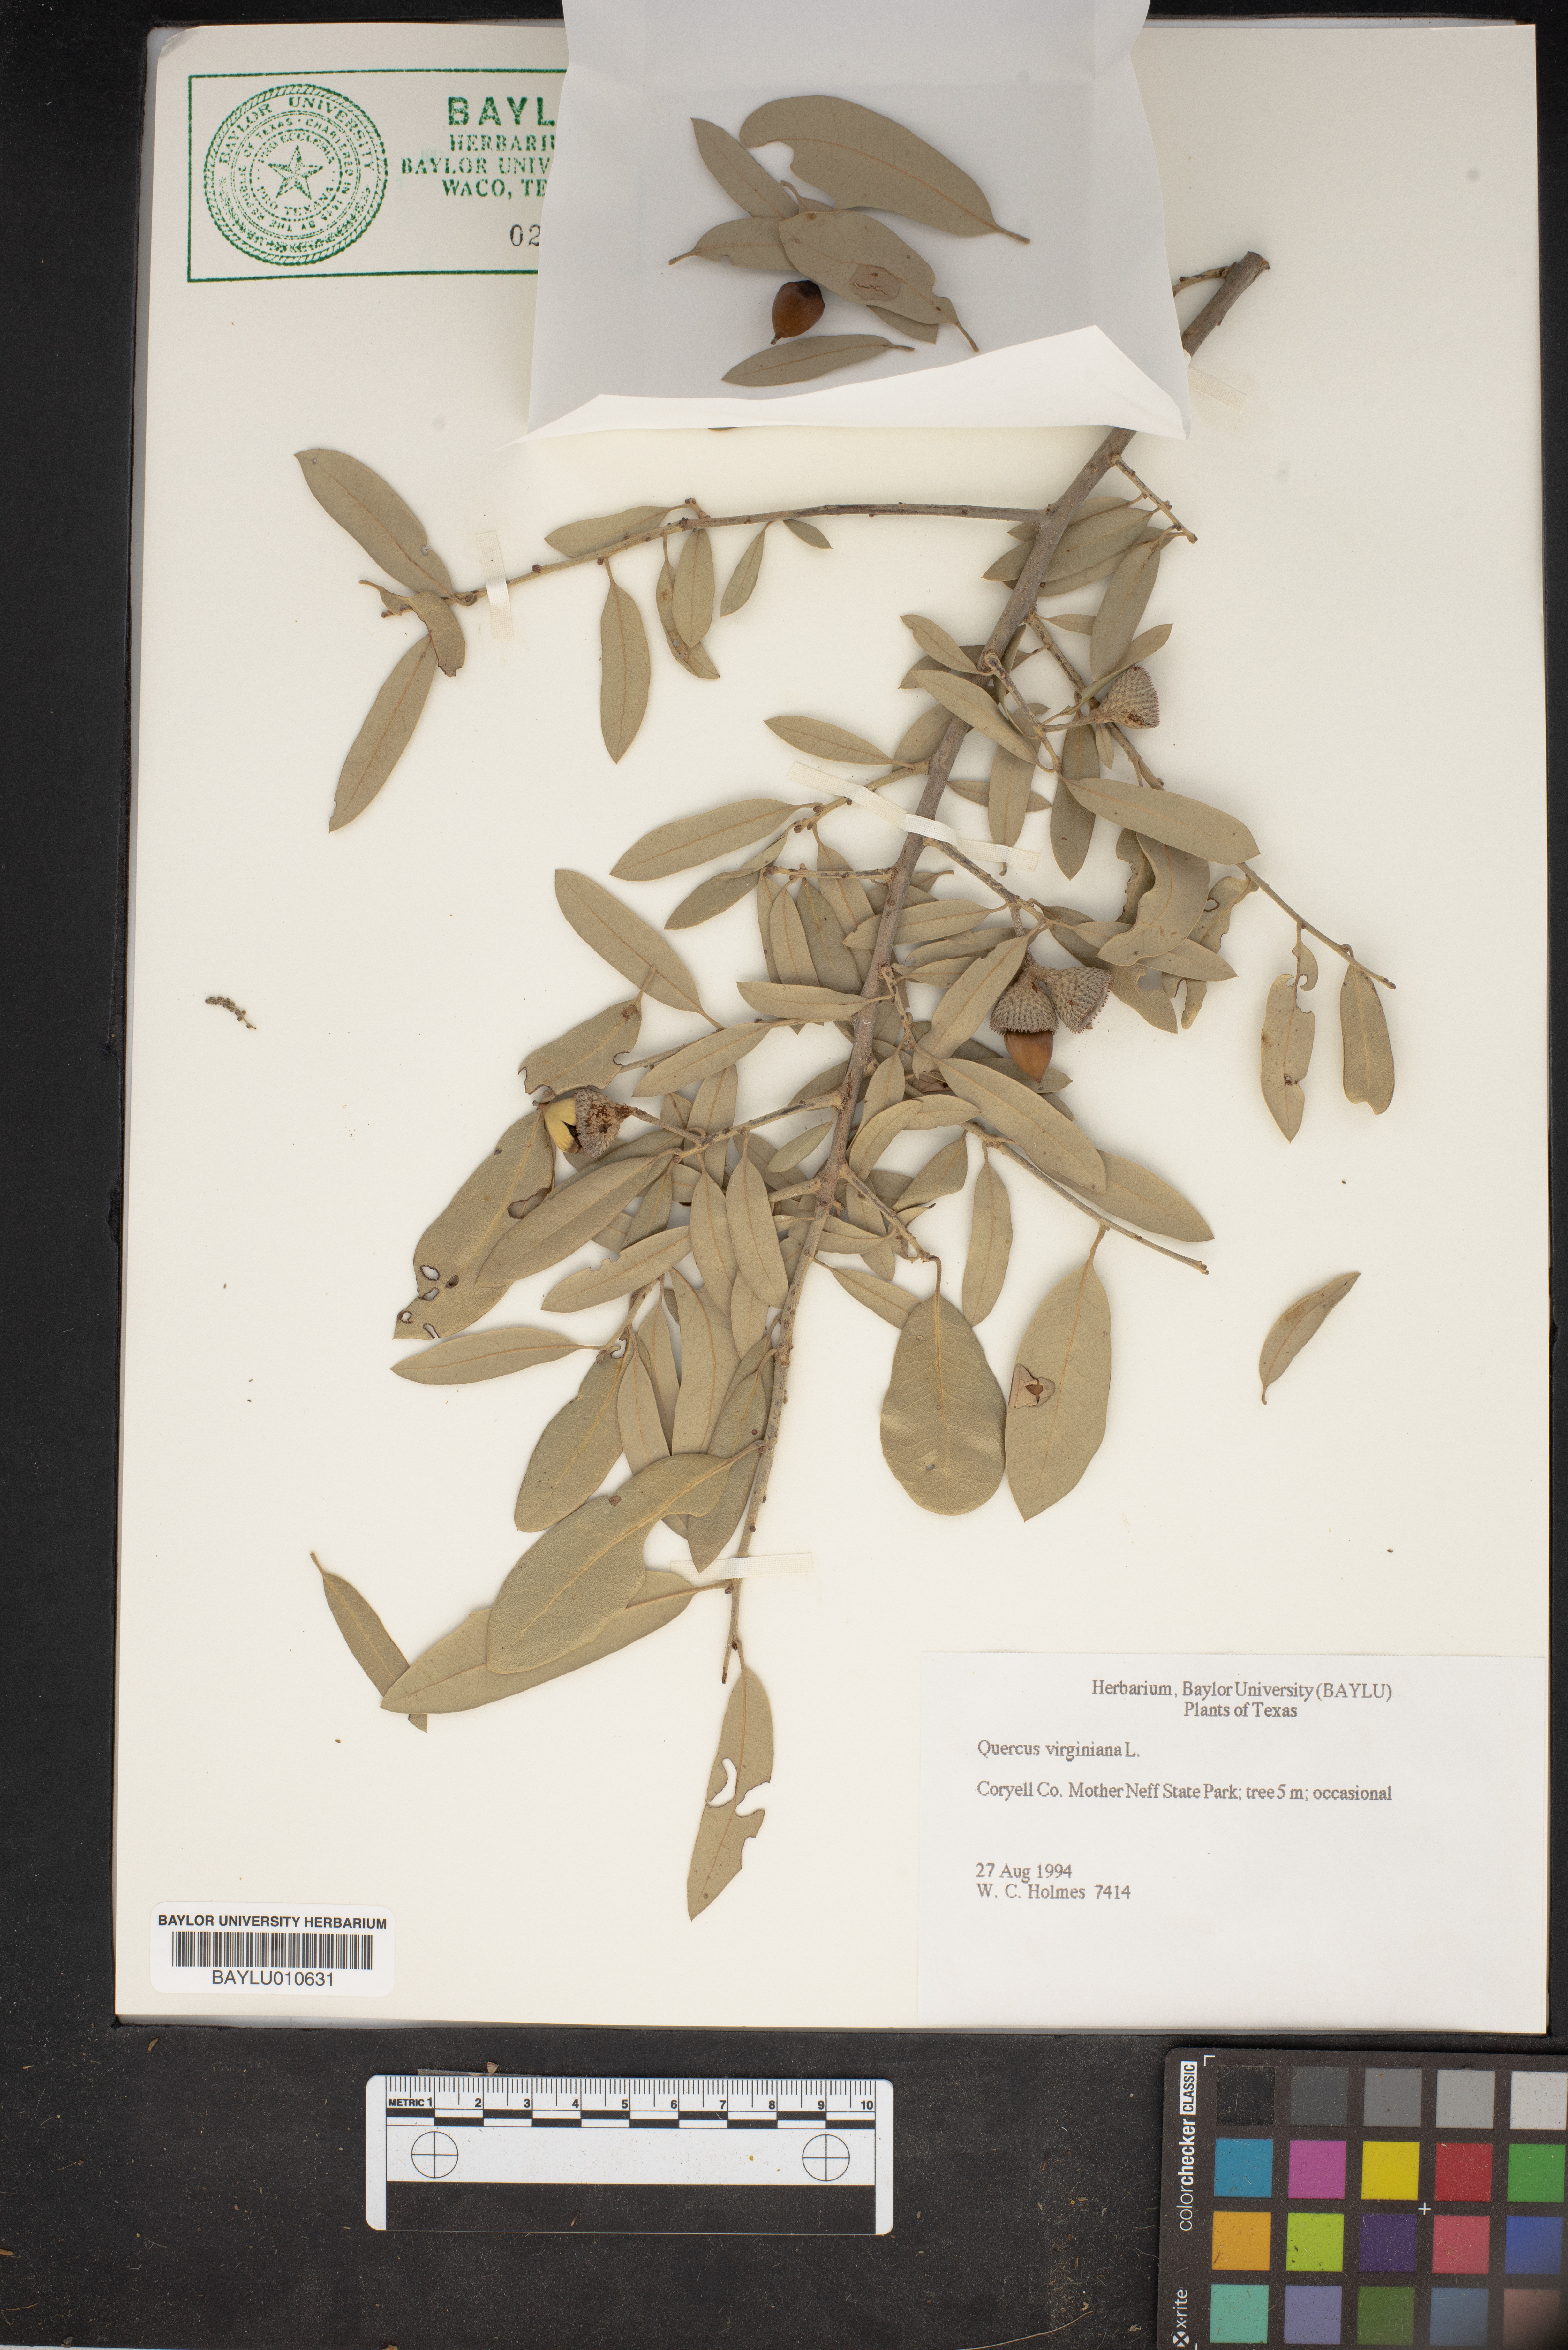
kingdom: Plantae
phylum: Tracheophyta
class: Magnoliopsida
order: Fagales
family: Fagaceae
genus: Quercus
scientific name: Quercus virginiana
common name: Southern live oak
